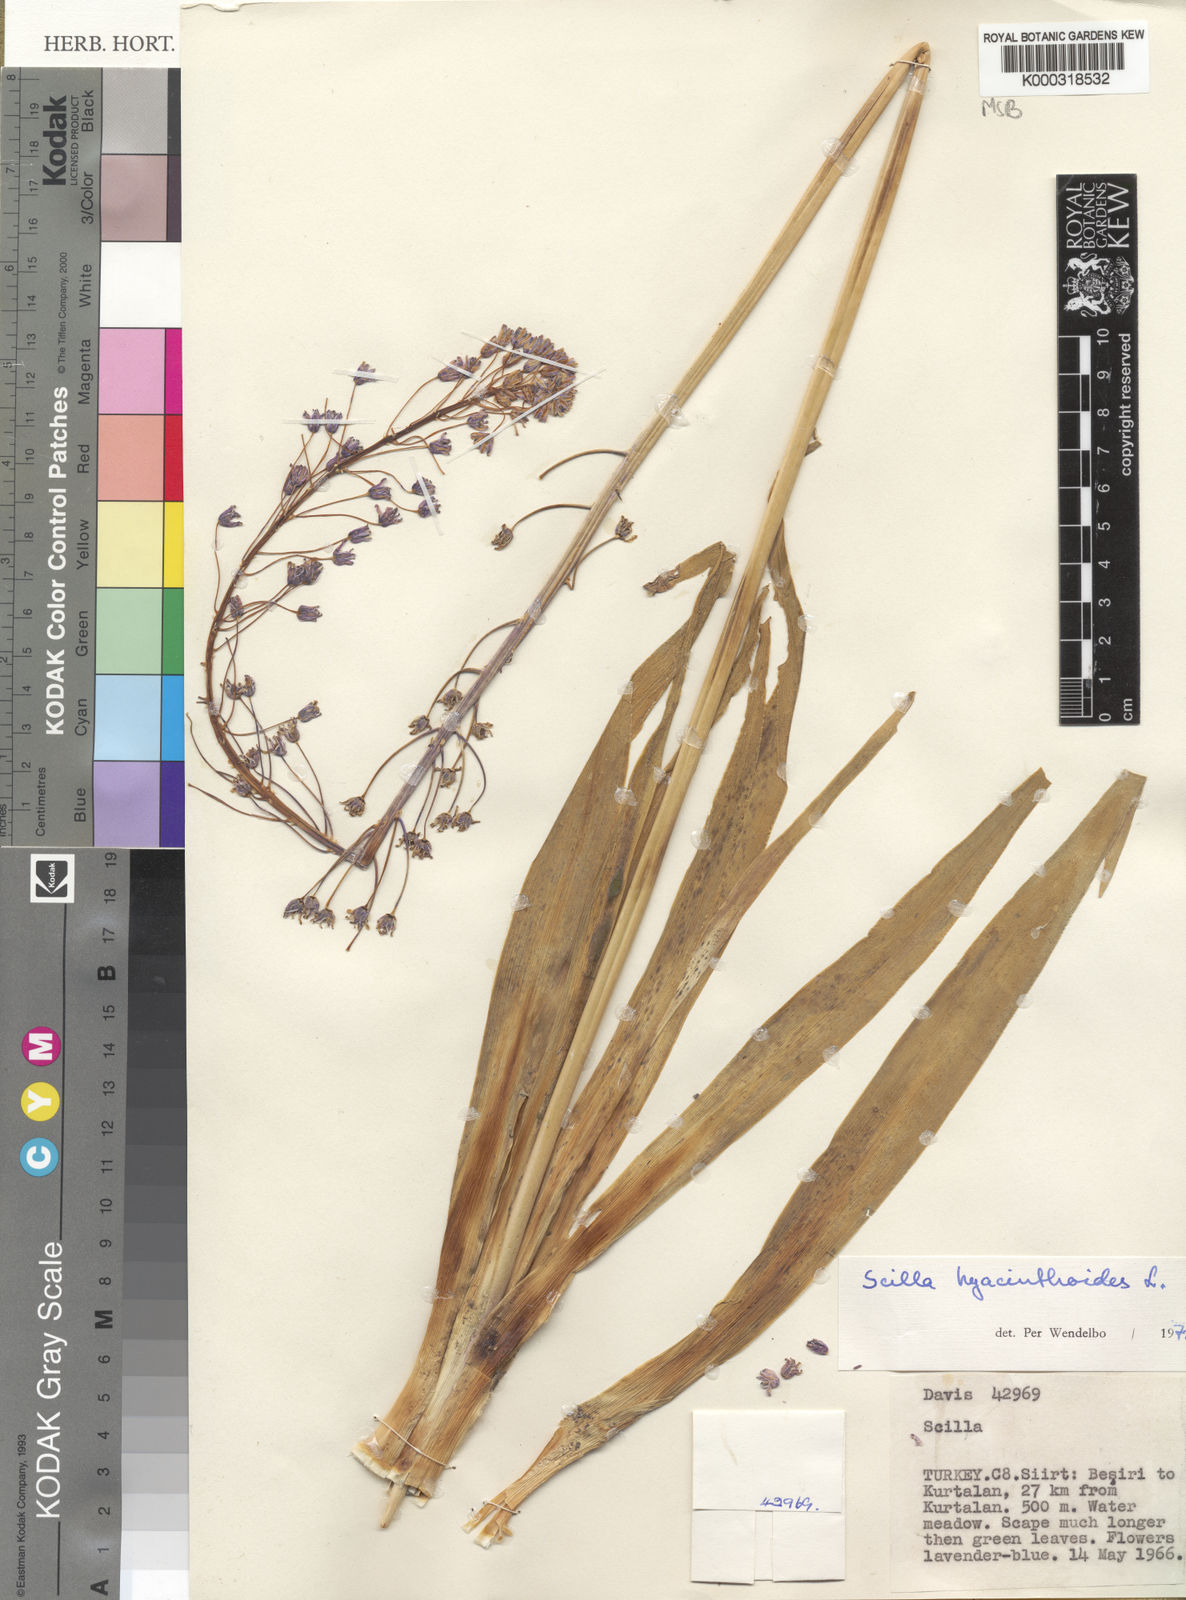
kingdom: Plantae
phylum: Tracheophyta
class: Liliopsida
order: Asparagales
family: Asparagaceae
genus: Scilla
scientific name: Scilla hyacinthoides
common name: Scilla
